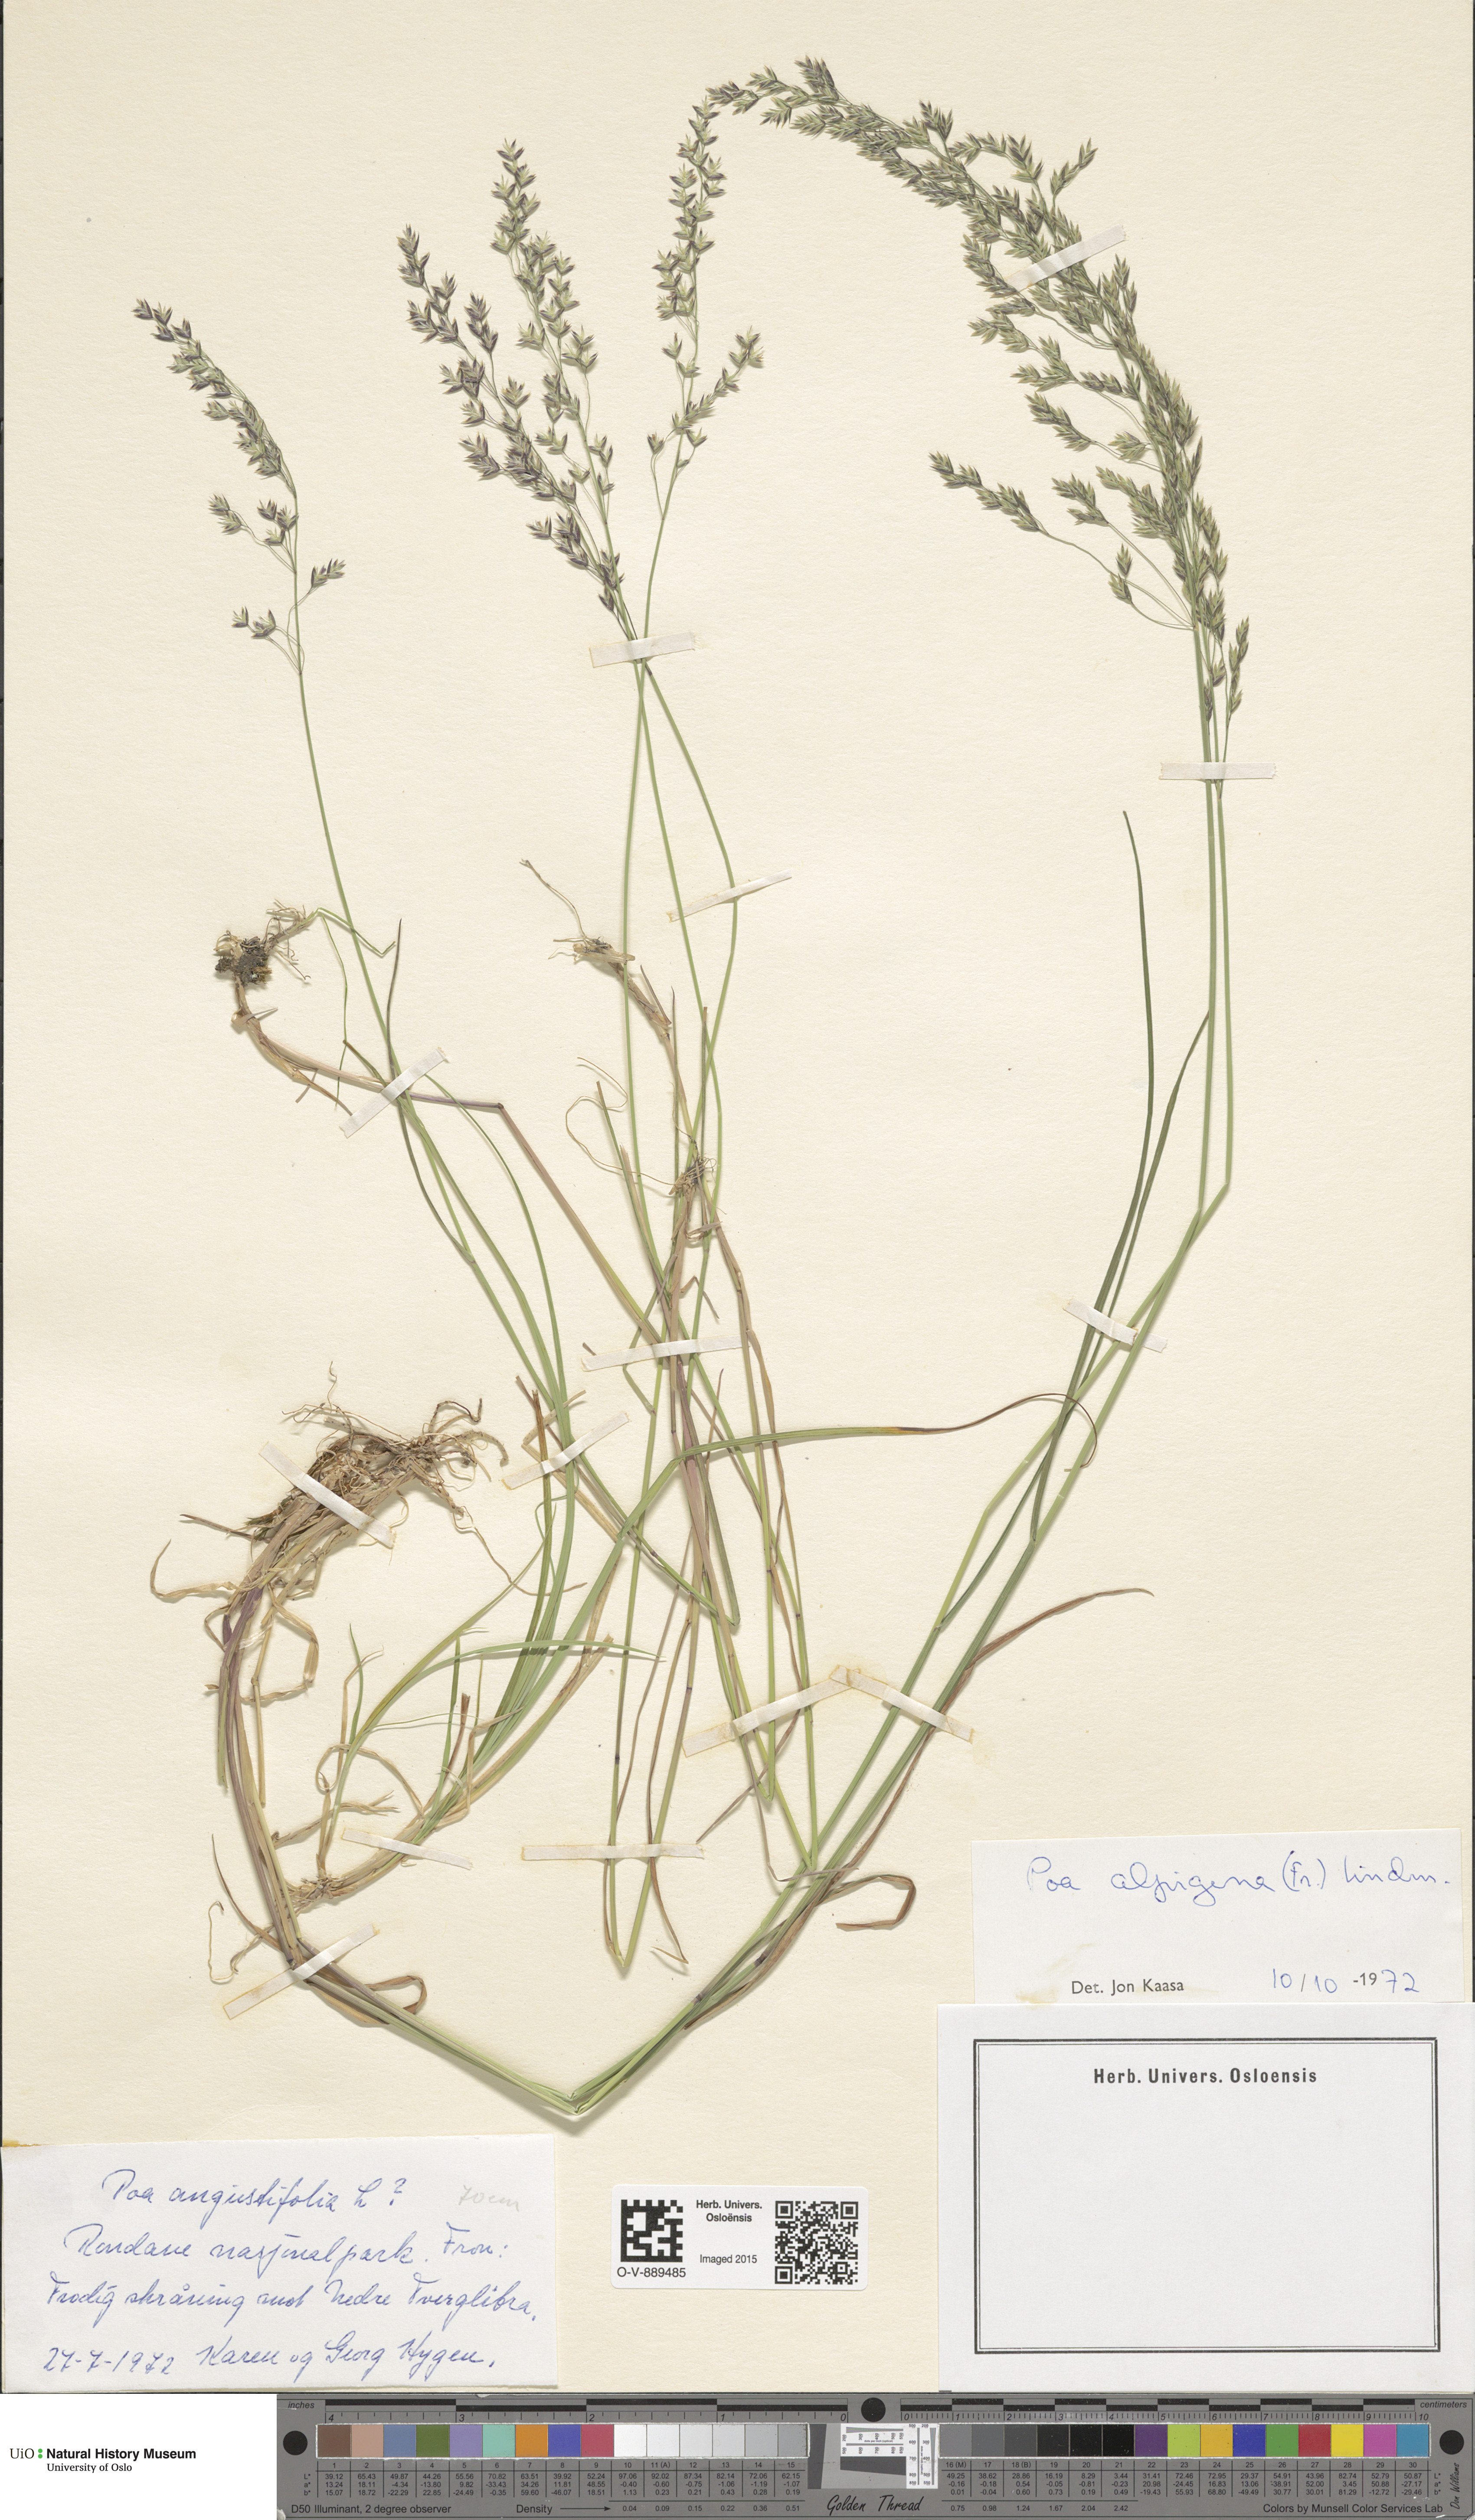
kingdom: Plantae
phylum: Tracheophyta
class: Liliopsida
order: Poales
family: Poaceae
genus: Poa
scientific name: Poa alpigena
